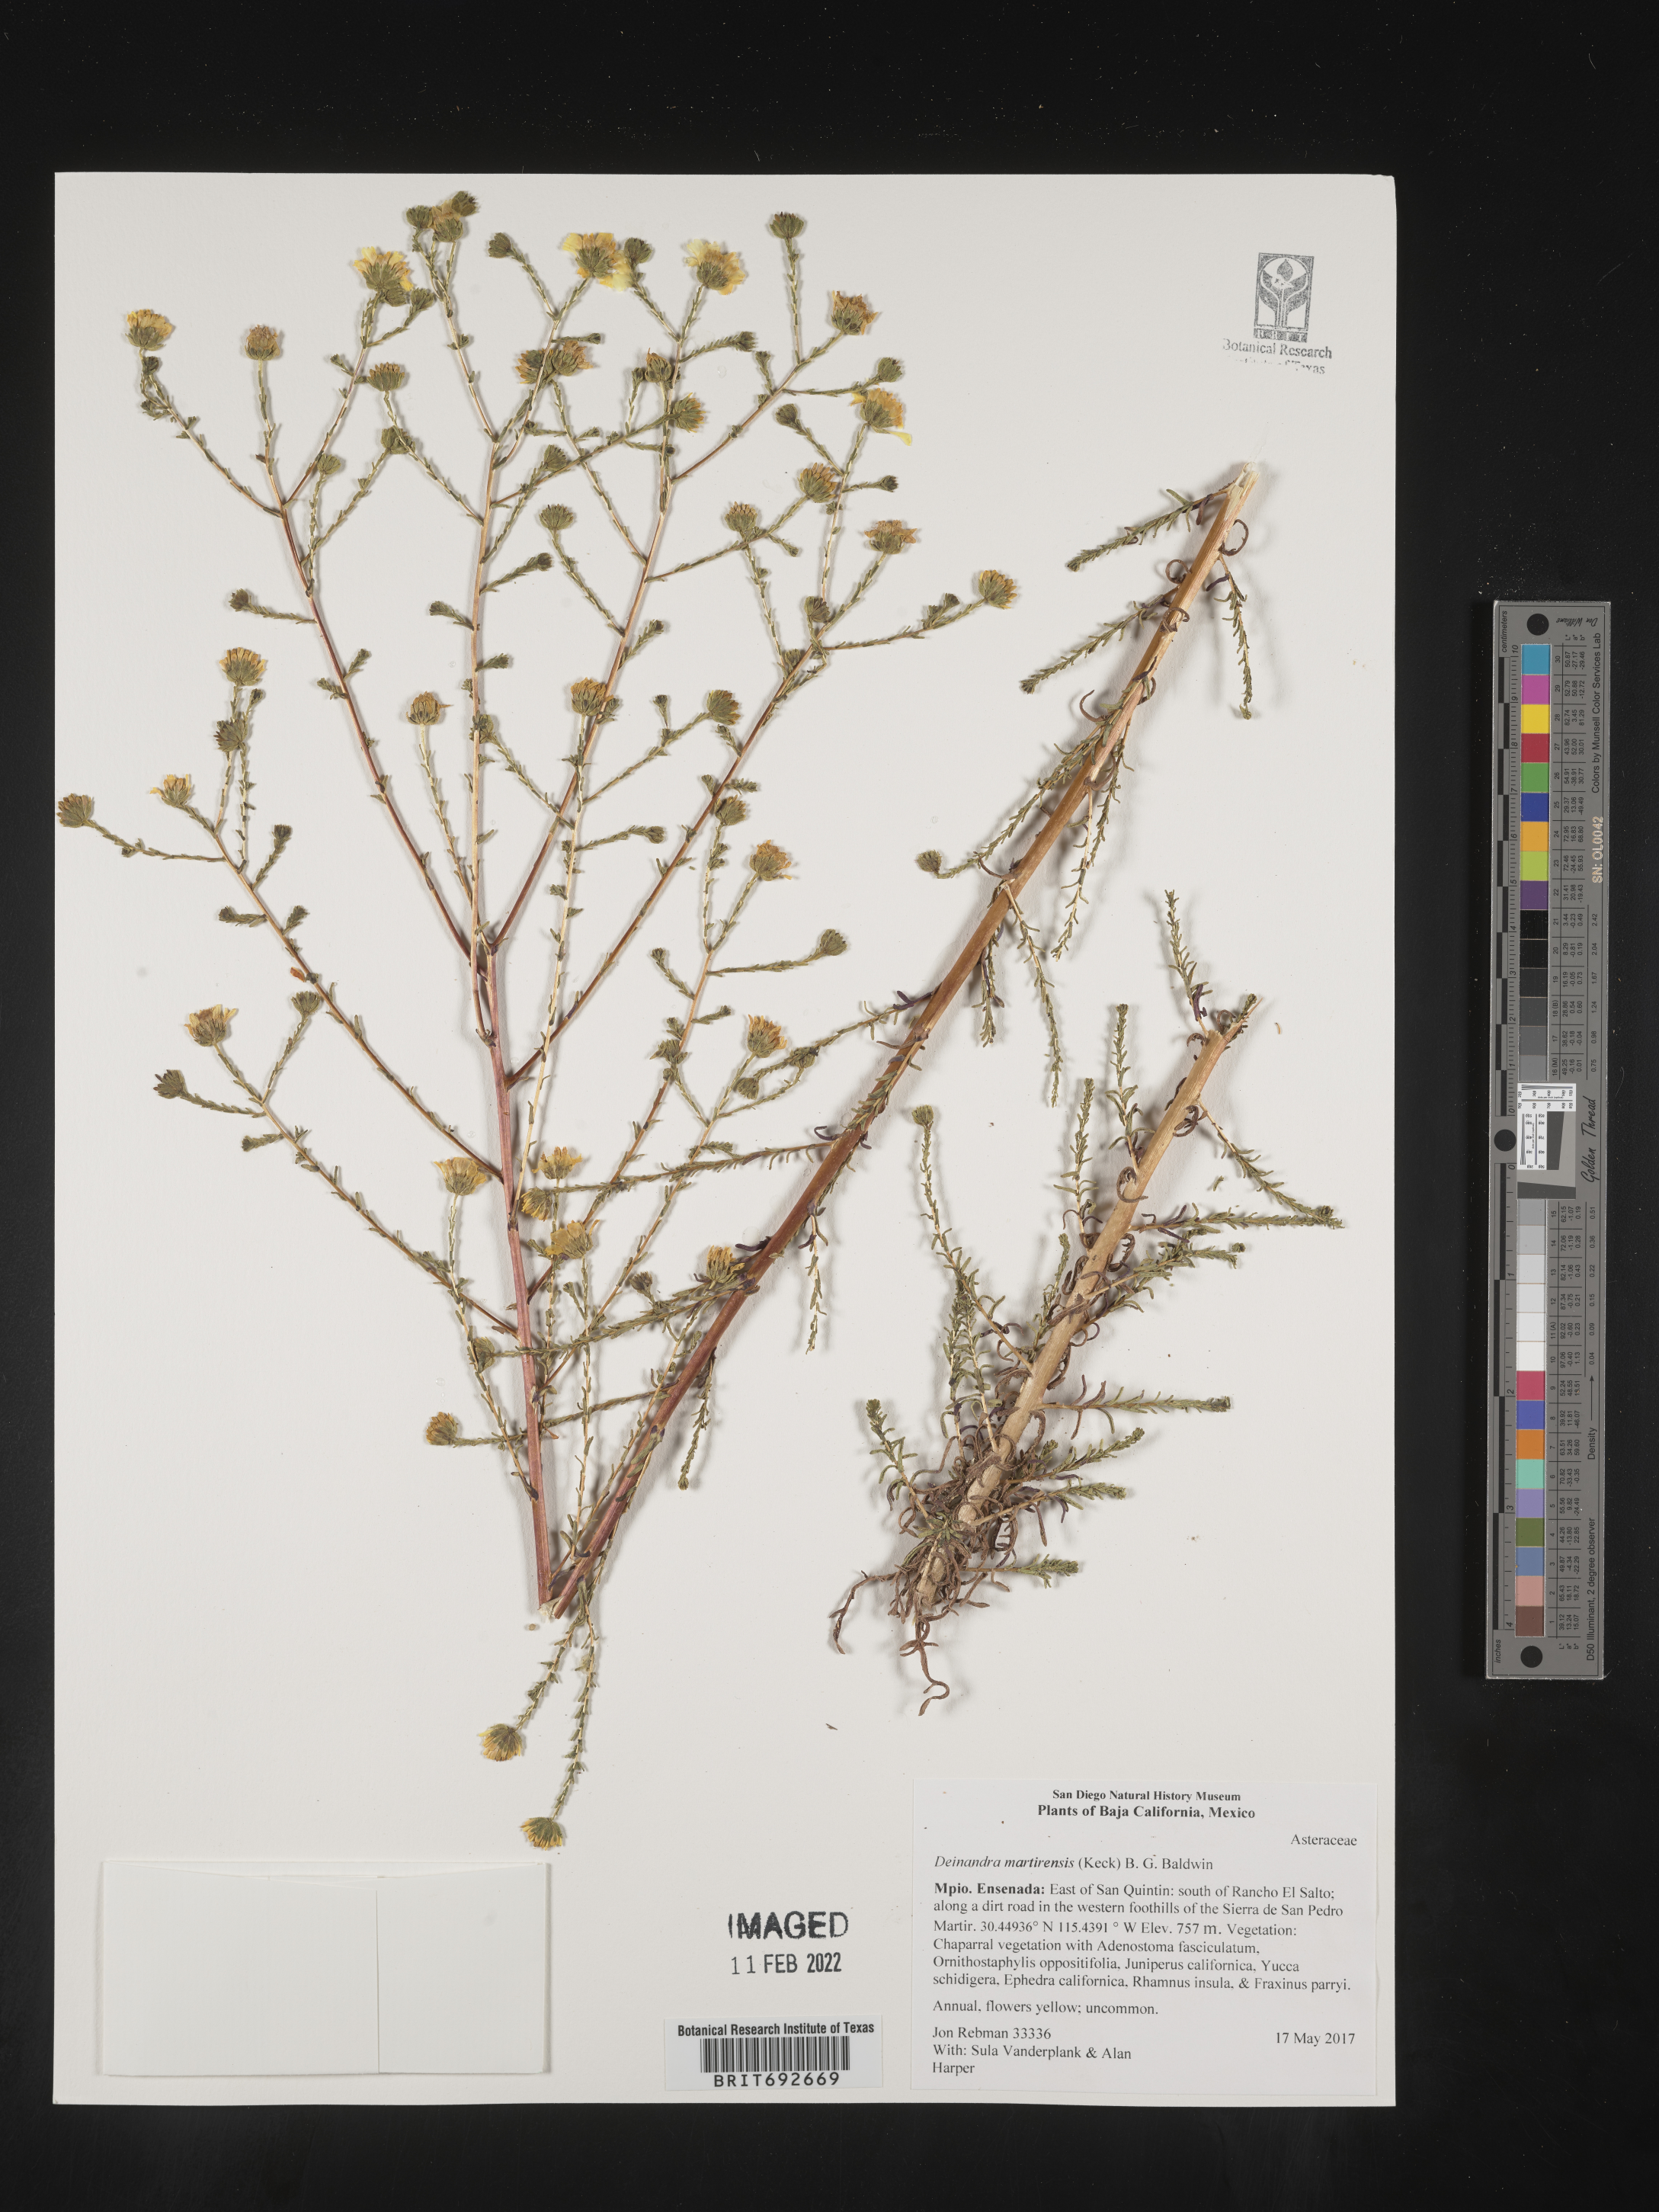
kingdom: Plantae
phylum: Tracheophyta
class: Magnoliopsida
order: Asterales
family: Asteraceae
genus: Deinandra
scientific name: Deinandra
